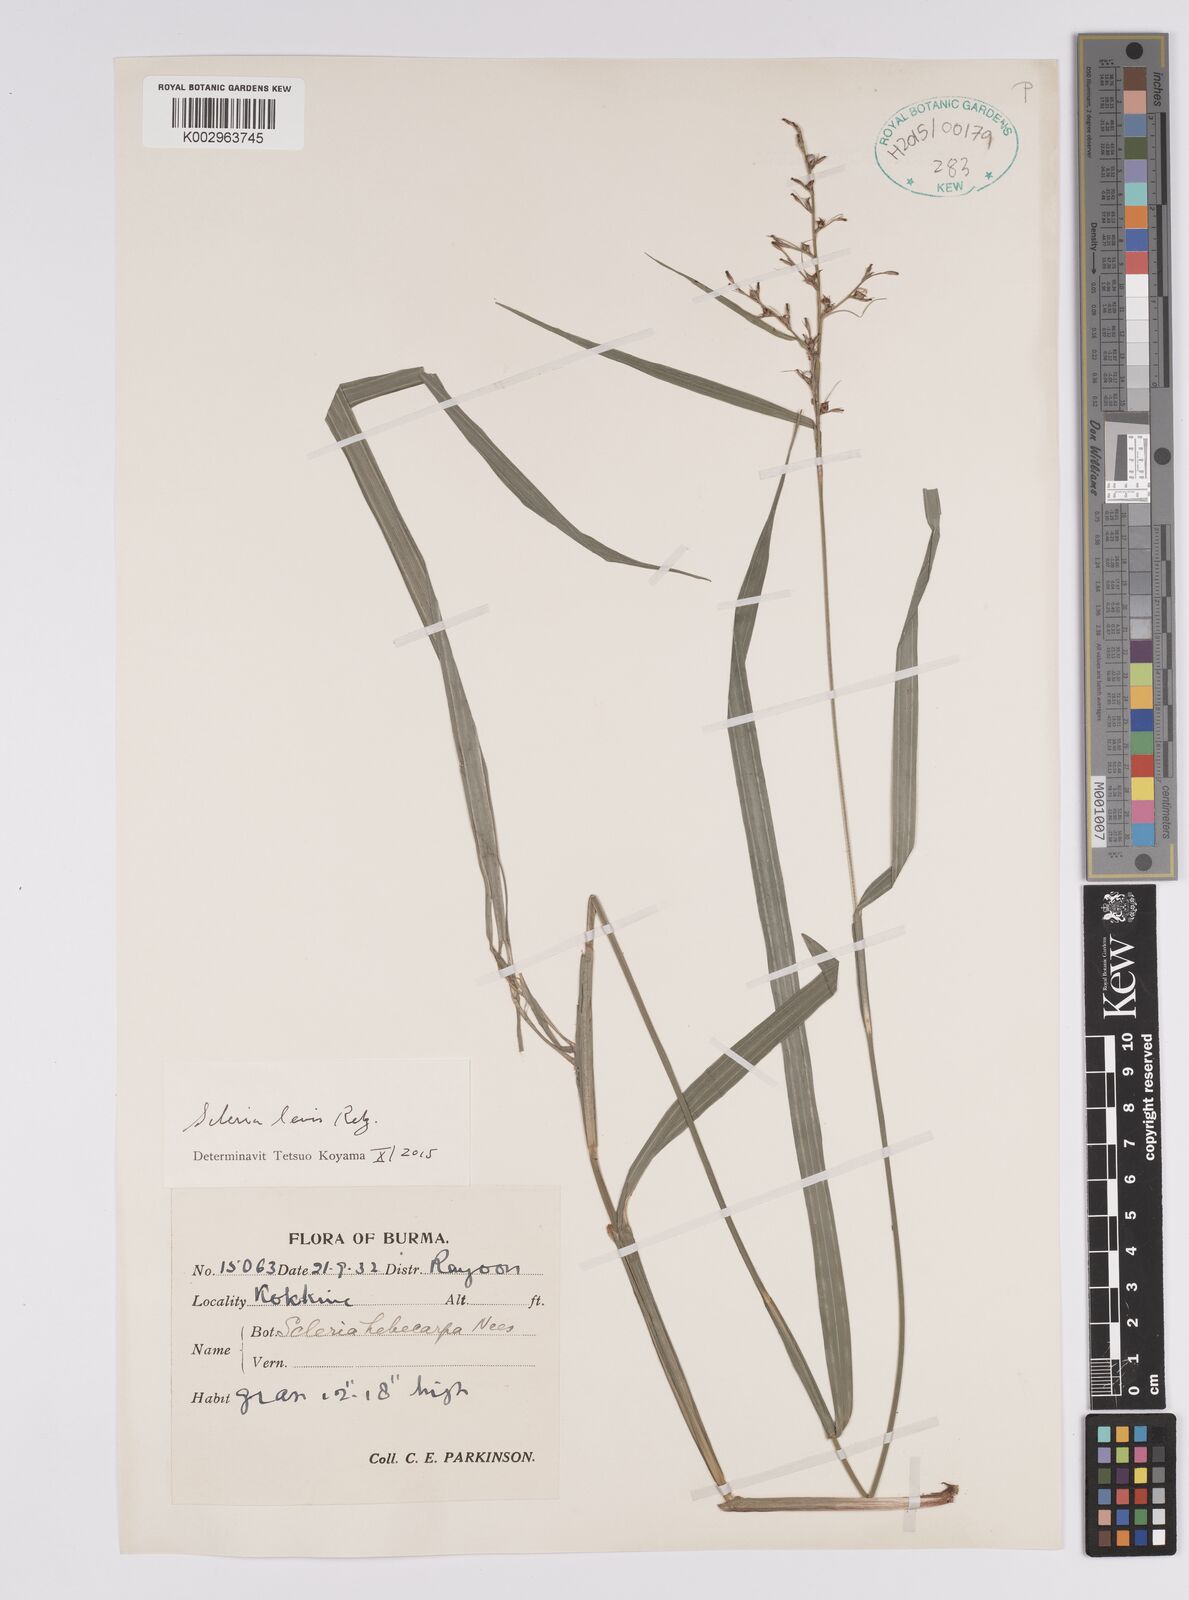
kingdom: Plantae
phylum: Tracheophyta
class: Liliopsida
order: Poales
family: Cyperaceae
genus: Scleria
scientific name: Scleria levis
